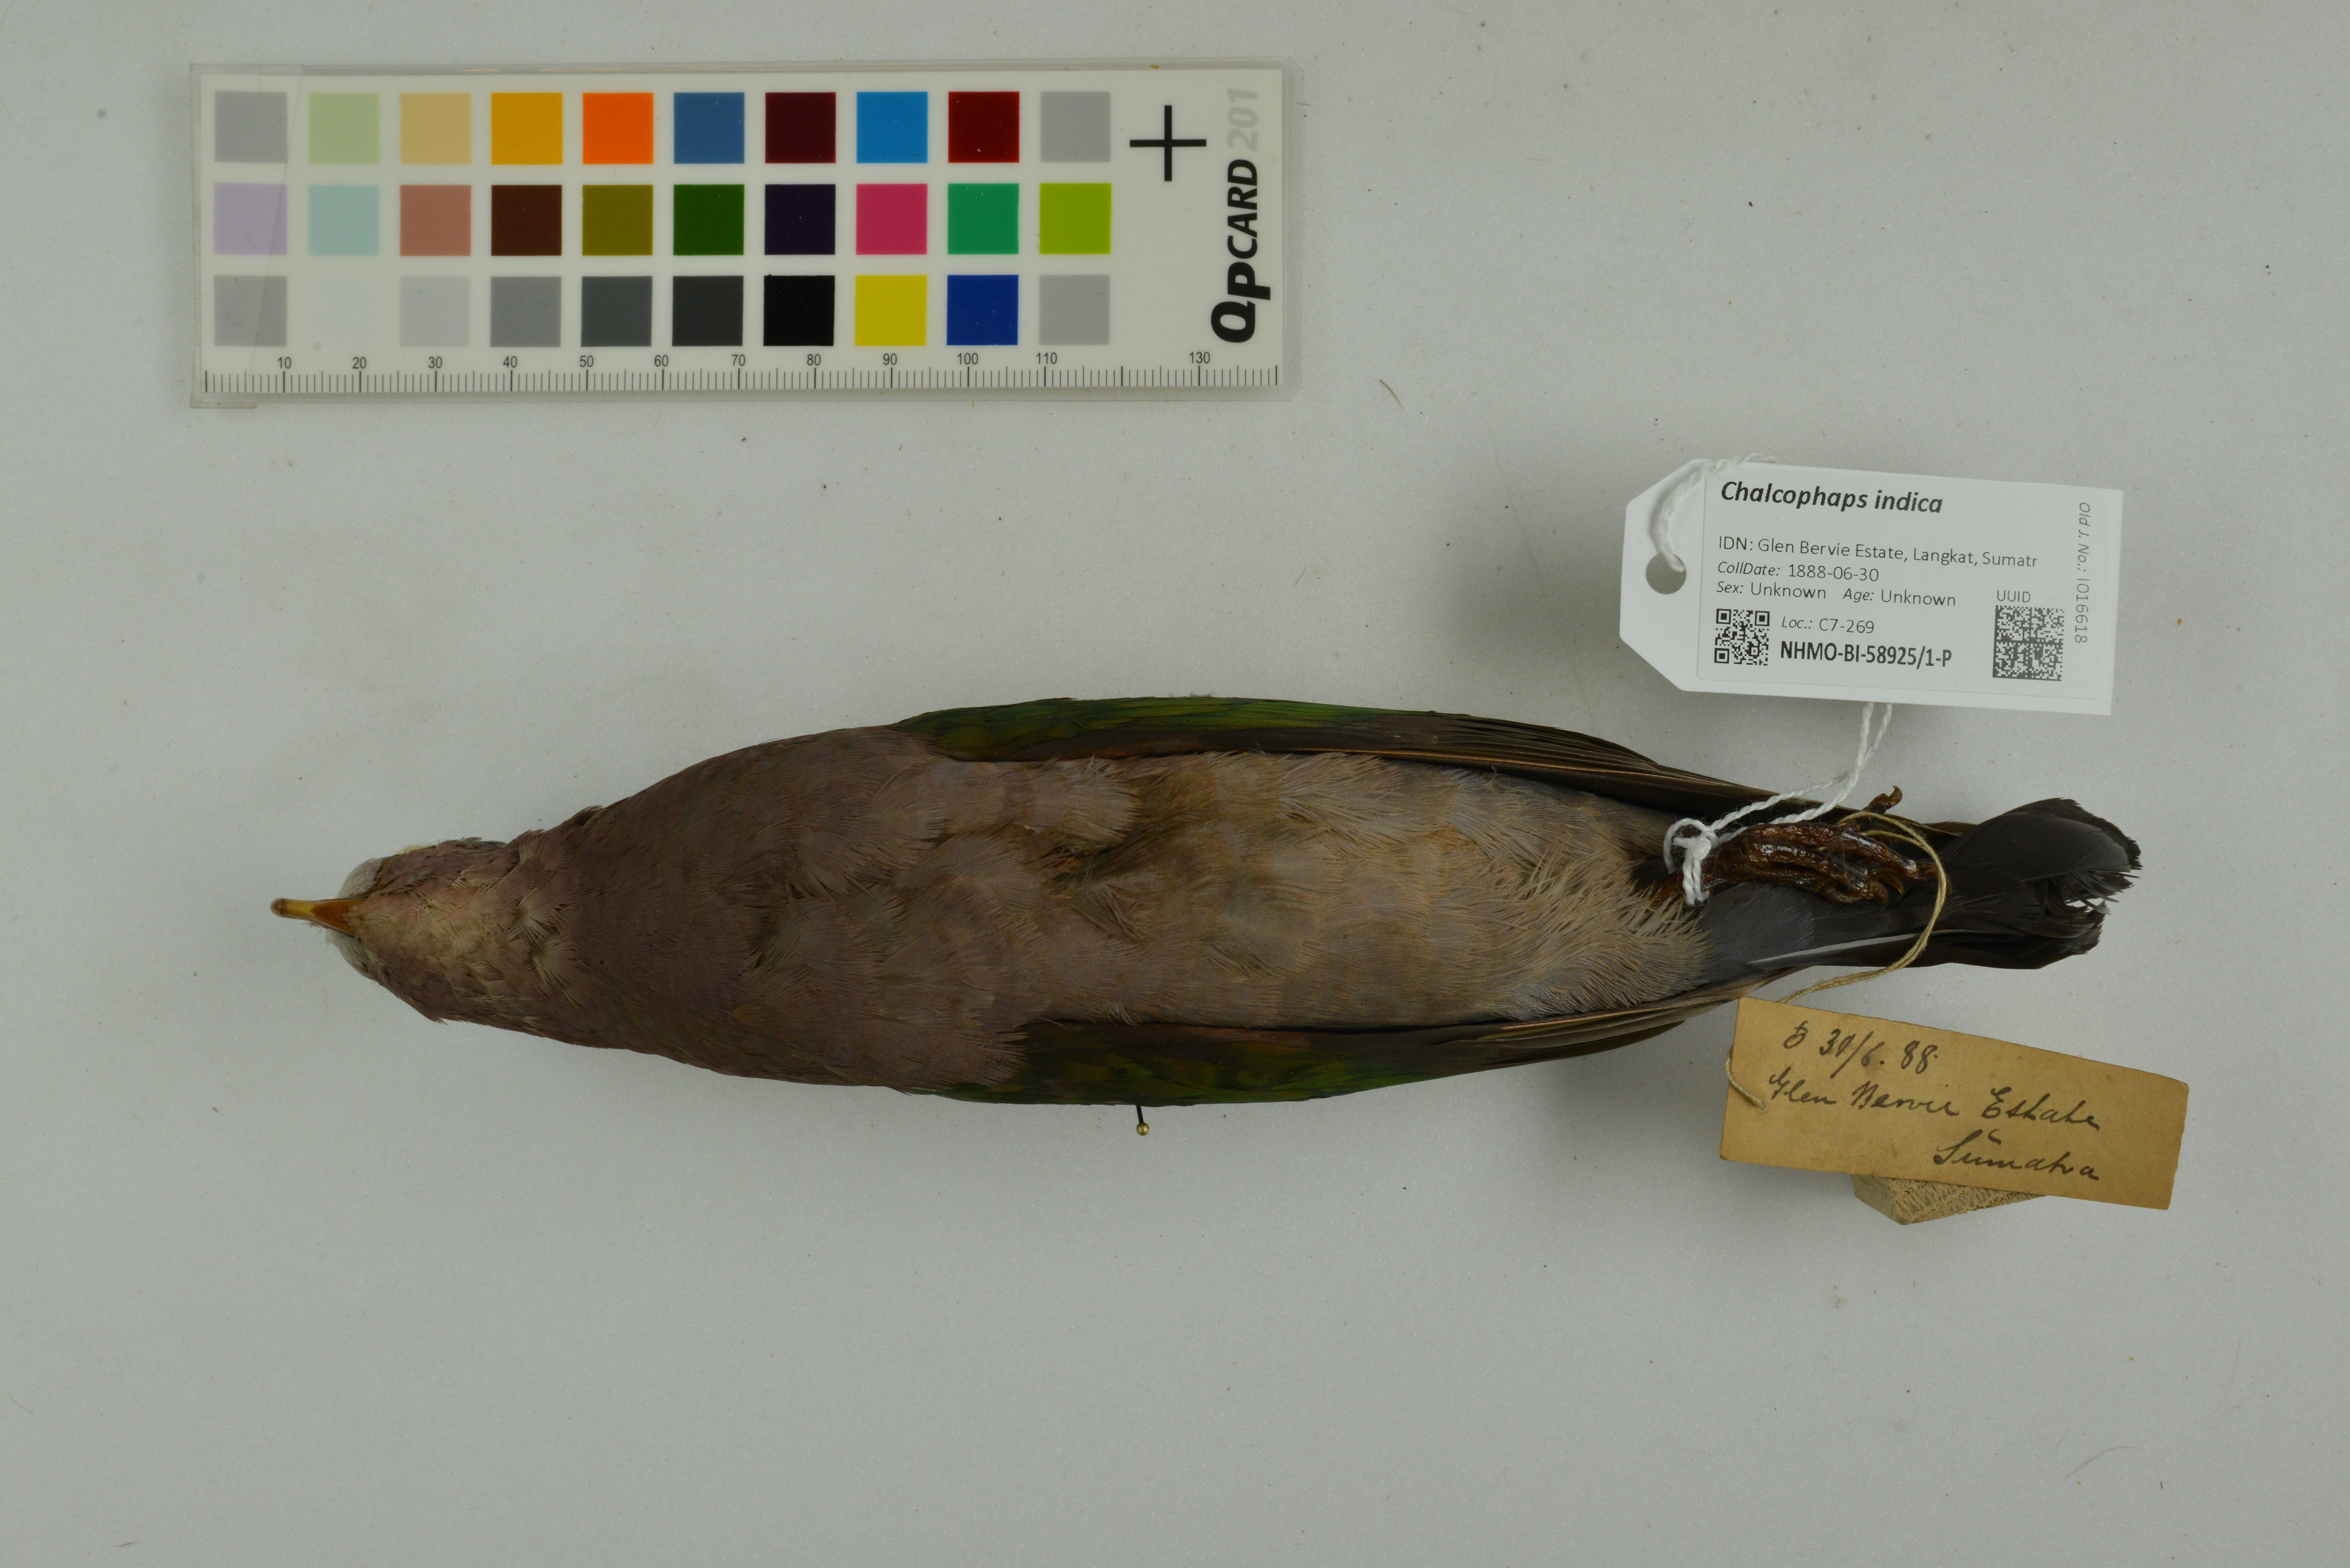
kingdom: Animalia
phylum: Chordata
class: Aves
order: Columbiformes
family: Columbidae
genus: Chalcophaps
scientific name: Chalcophaps indica
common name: Common emerald dove
